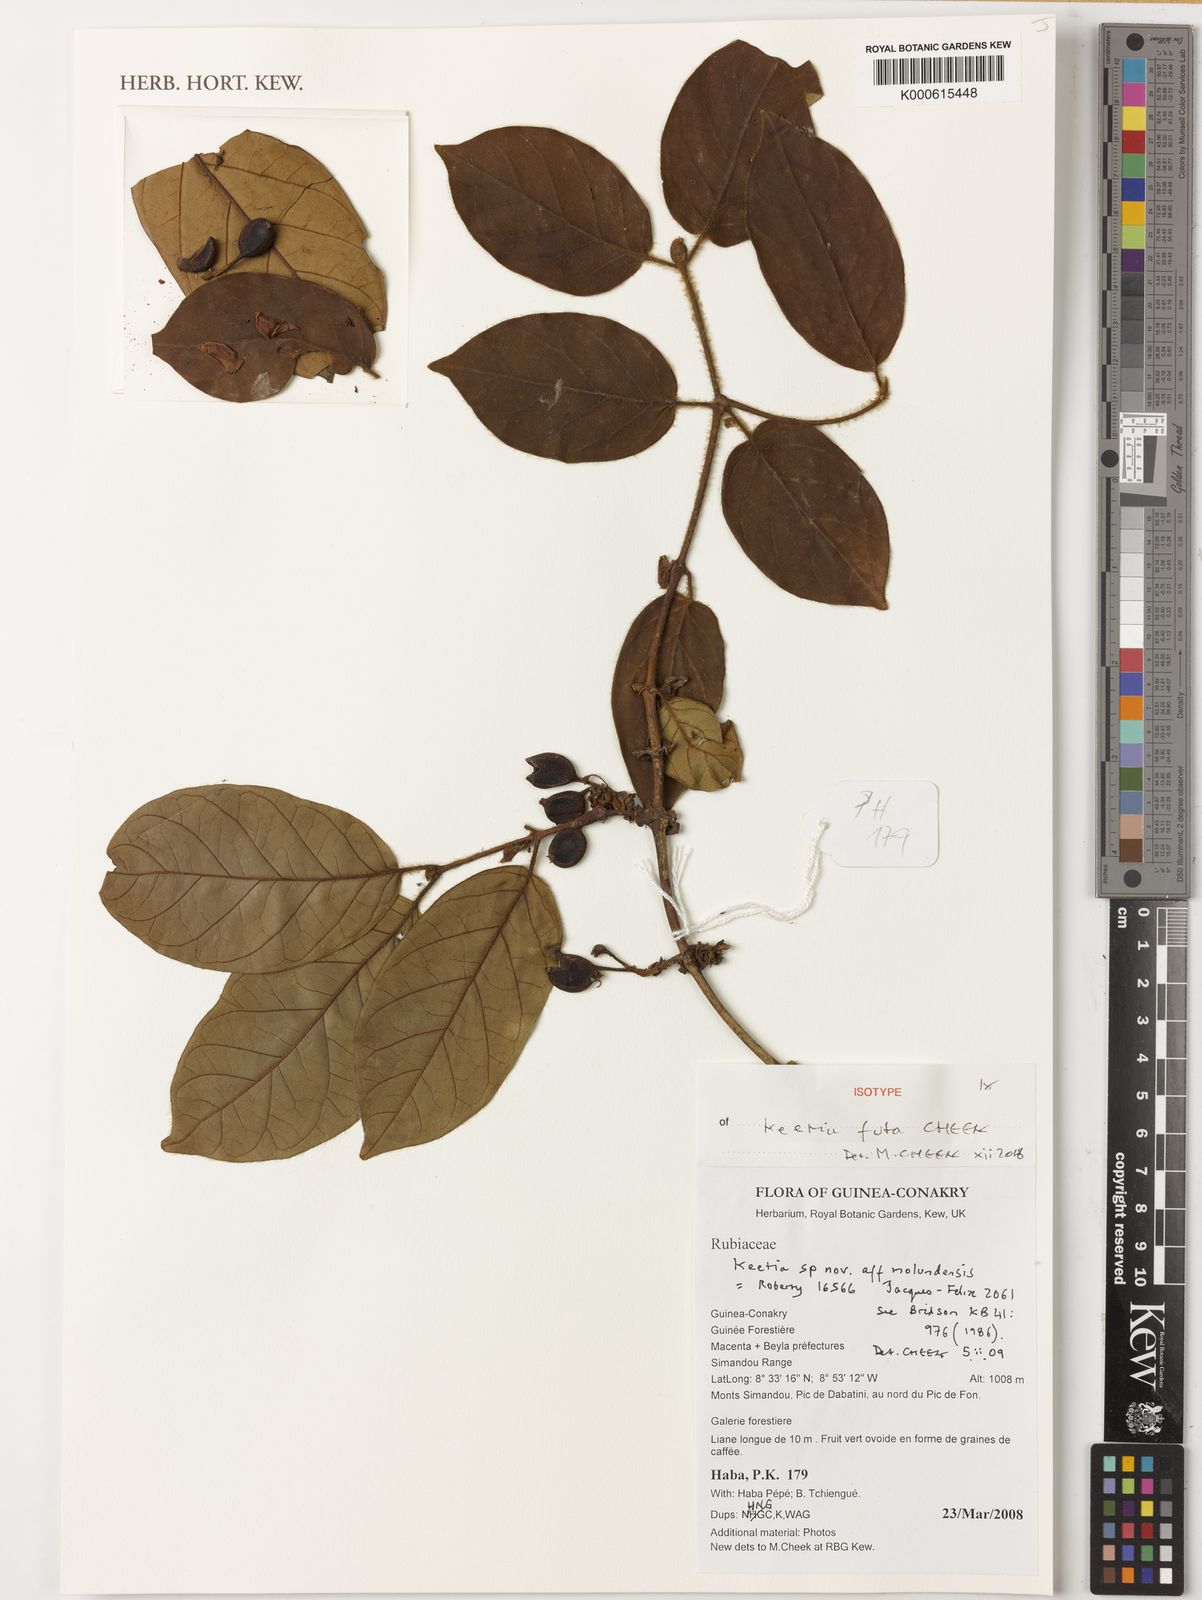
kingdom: Plantae
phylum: Tracheophyta
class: Magnoliopsida
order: Gentianales
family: Rubiaceae
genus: Keetia
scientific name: Keetia futa
